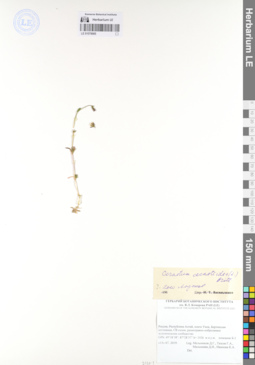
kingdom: Plantae
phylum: Tracheophyta
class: Magnoliopsida
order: Caryophyllales
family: Caryophyllaceae
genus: Dichodon
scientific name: Dichodon cerastoides
